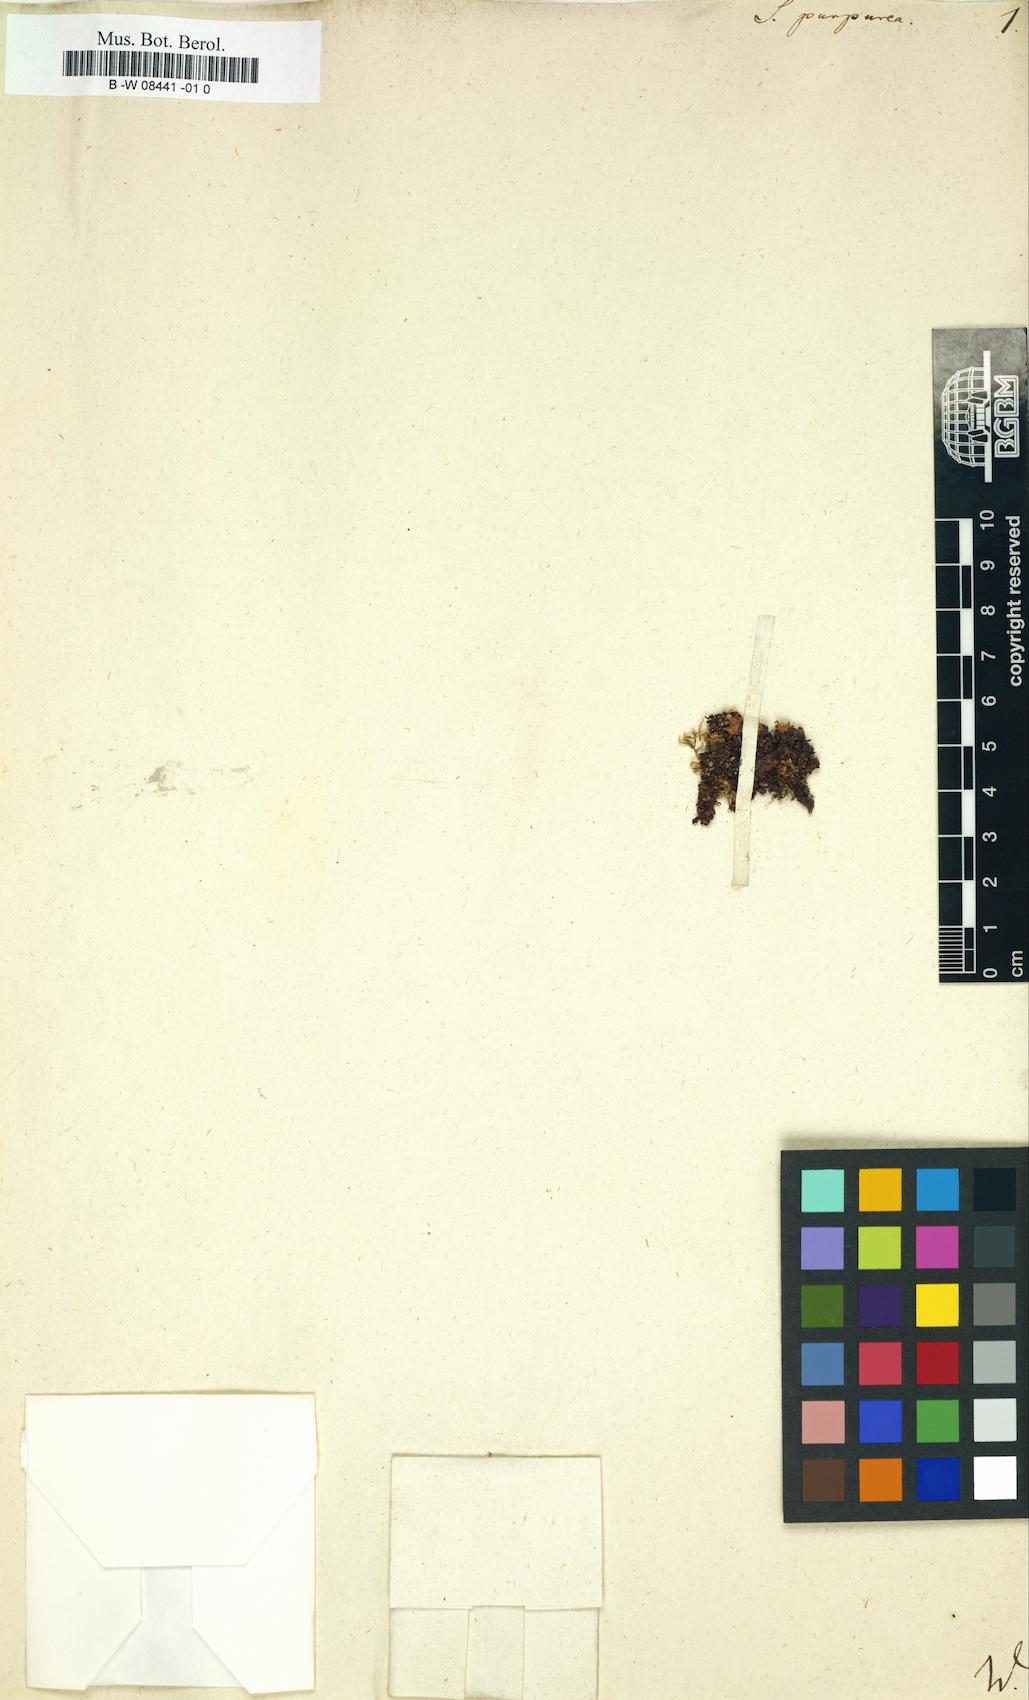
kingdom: Plantae
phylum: Tracheophyta
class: Magnoliopsida
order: Saxifragales
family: Saxifragaceae
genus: Saxifraga
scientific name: Saxifraga retusa
